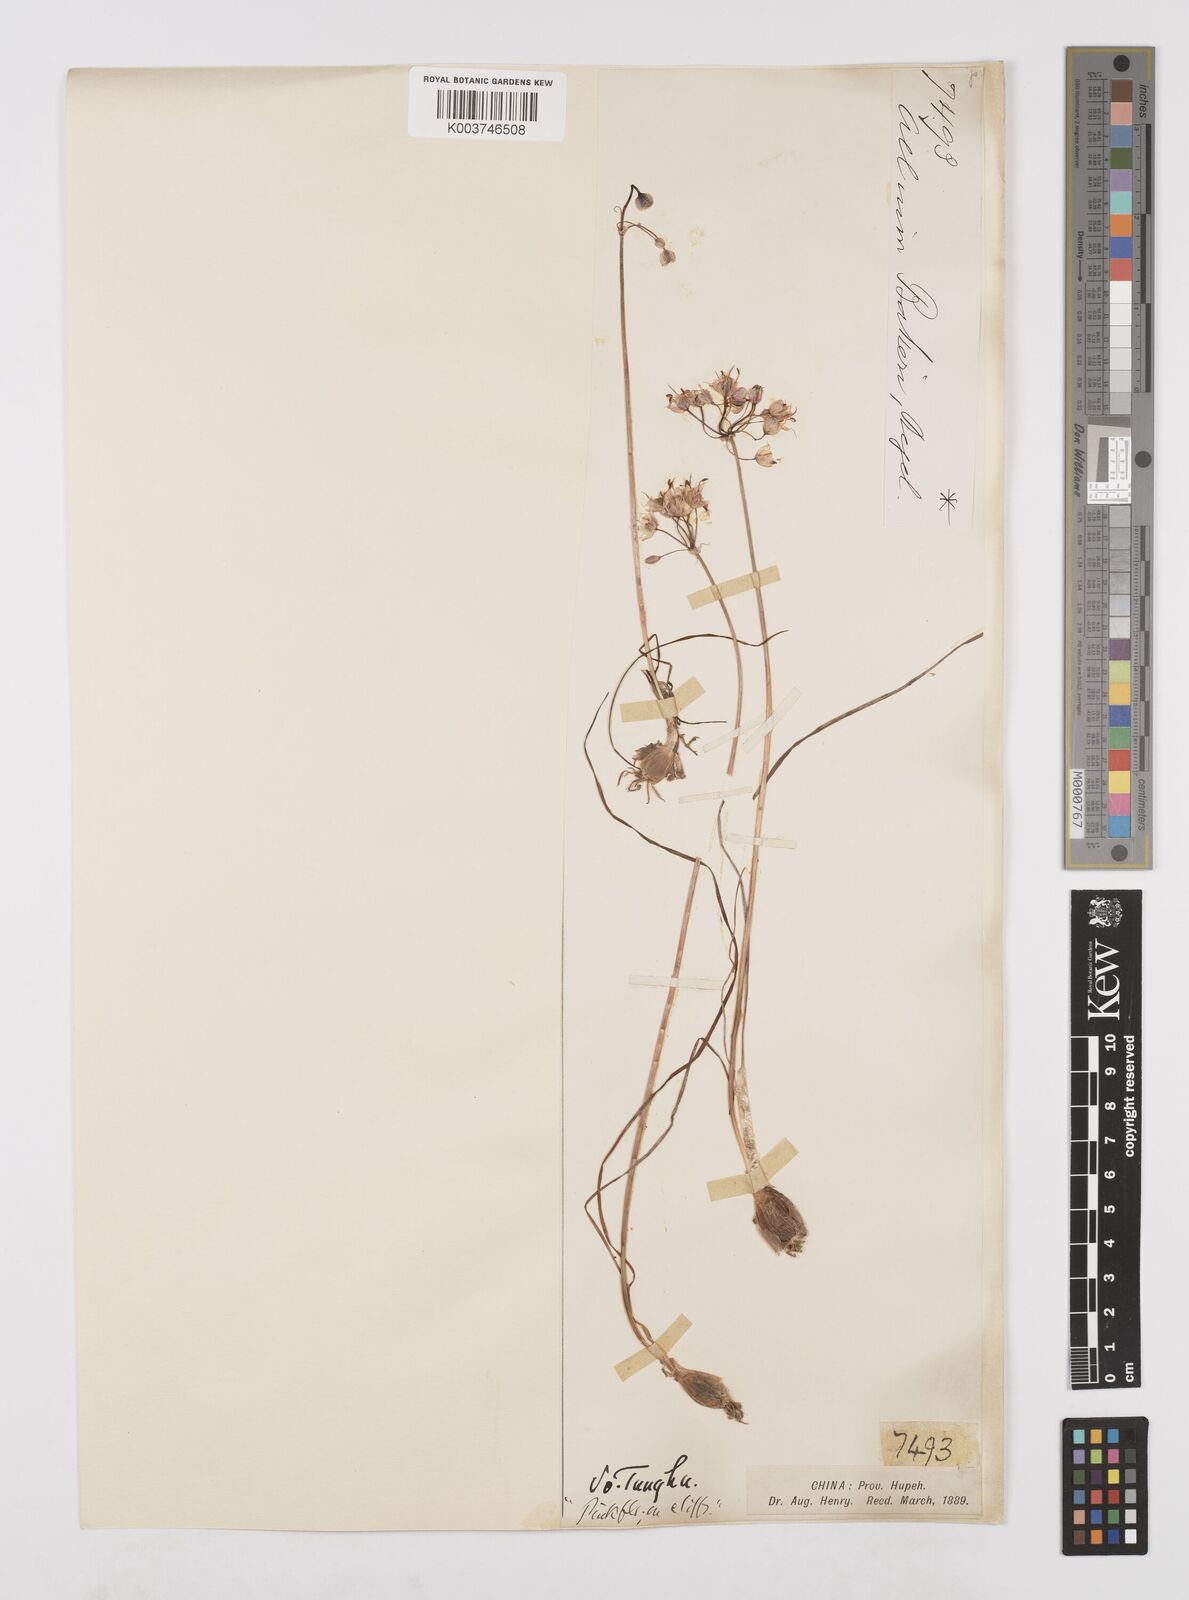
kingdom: Plantae
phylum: Tracheophyta
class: Liliopsida
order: Asparagales
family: Amaryllidaceae
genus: Allium
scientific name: Allium chinense
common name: Japanese scallion
